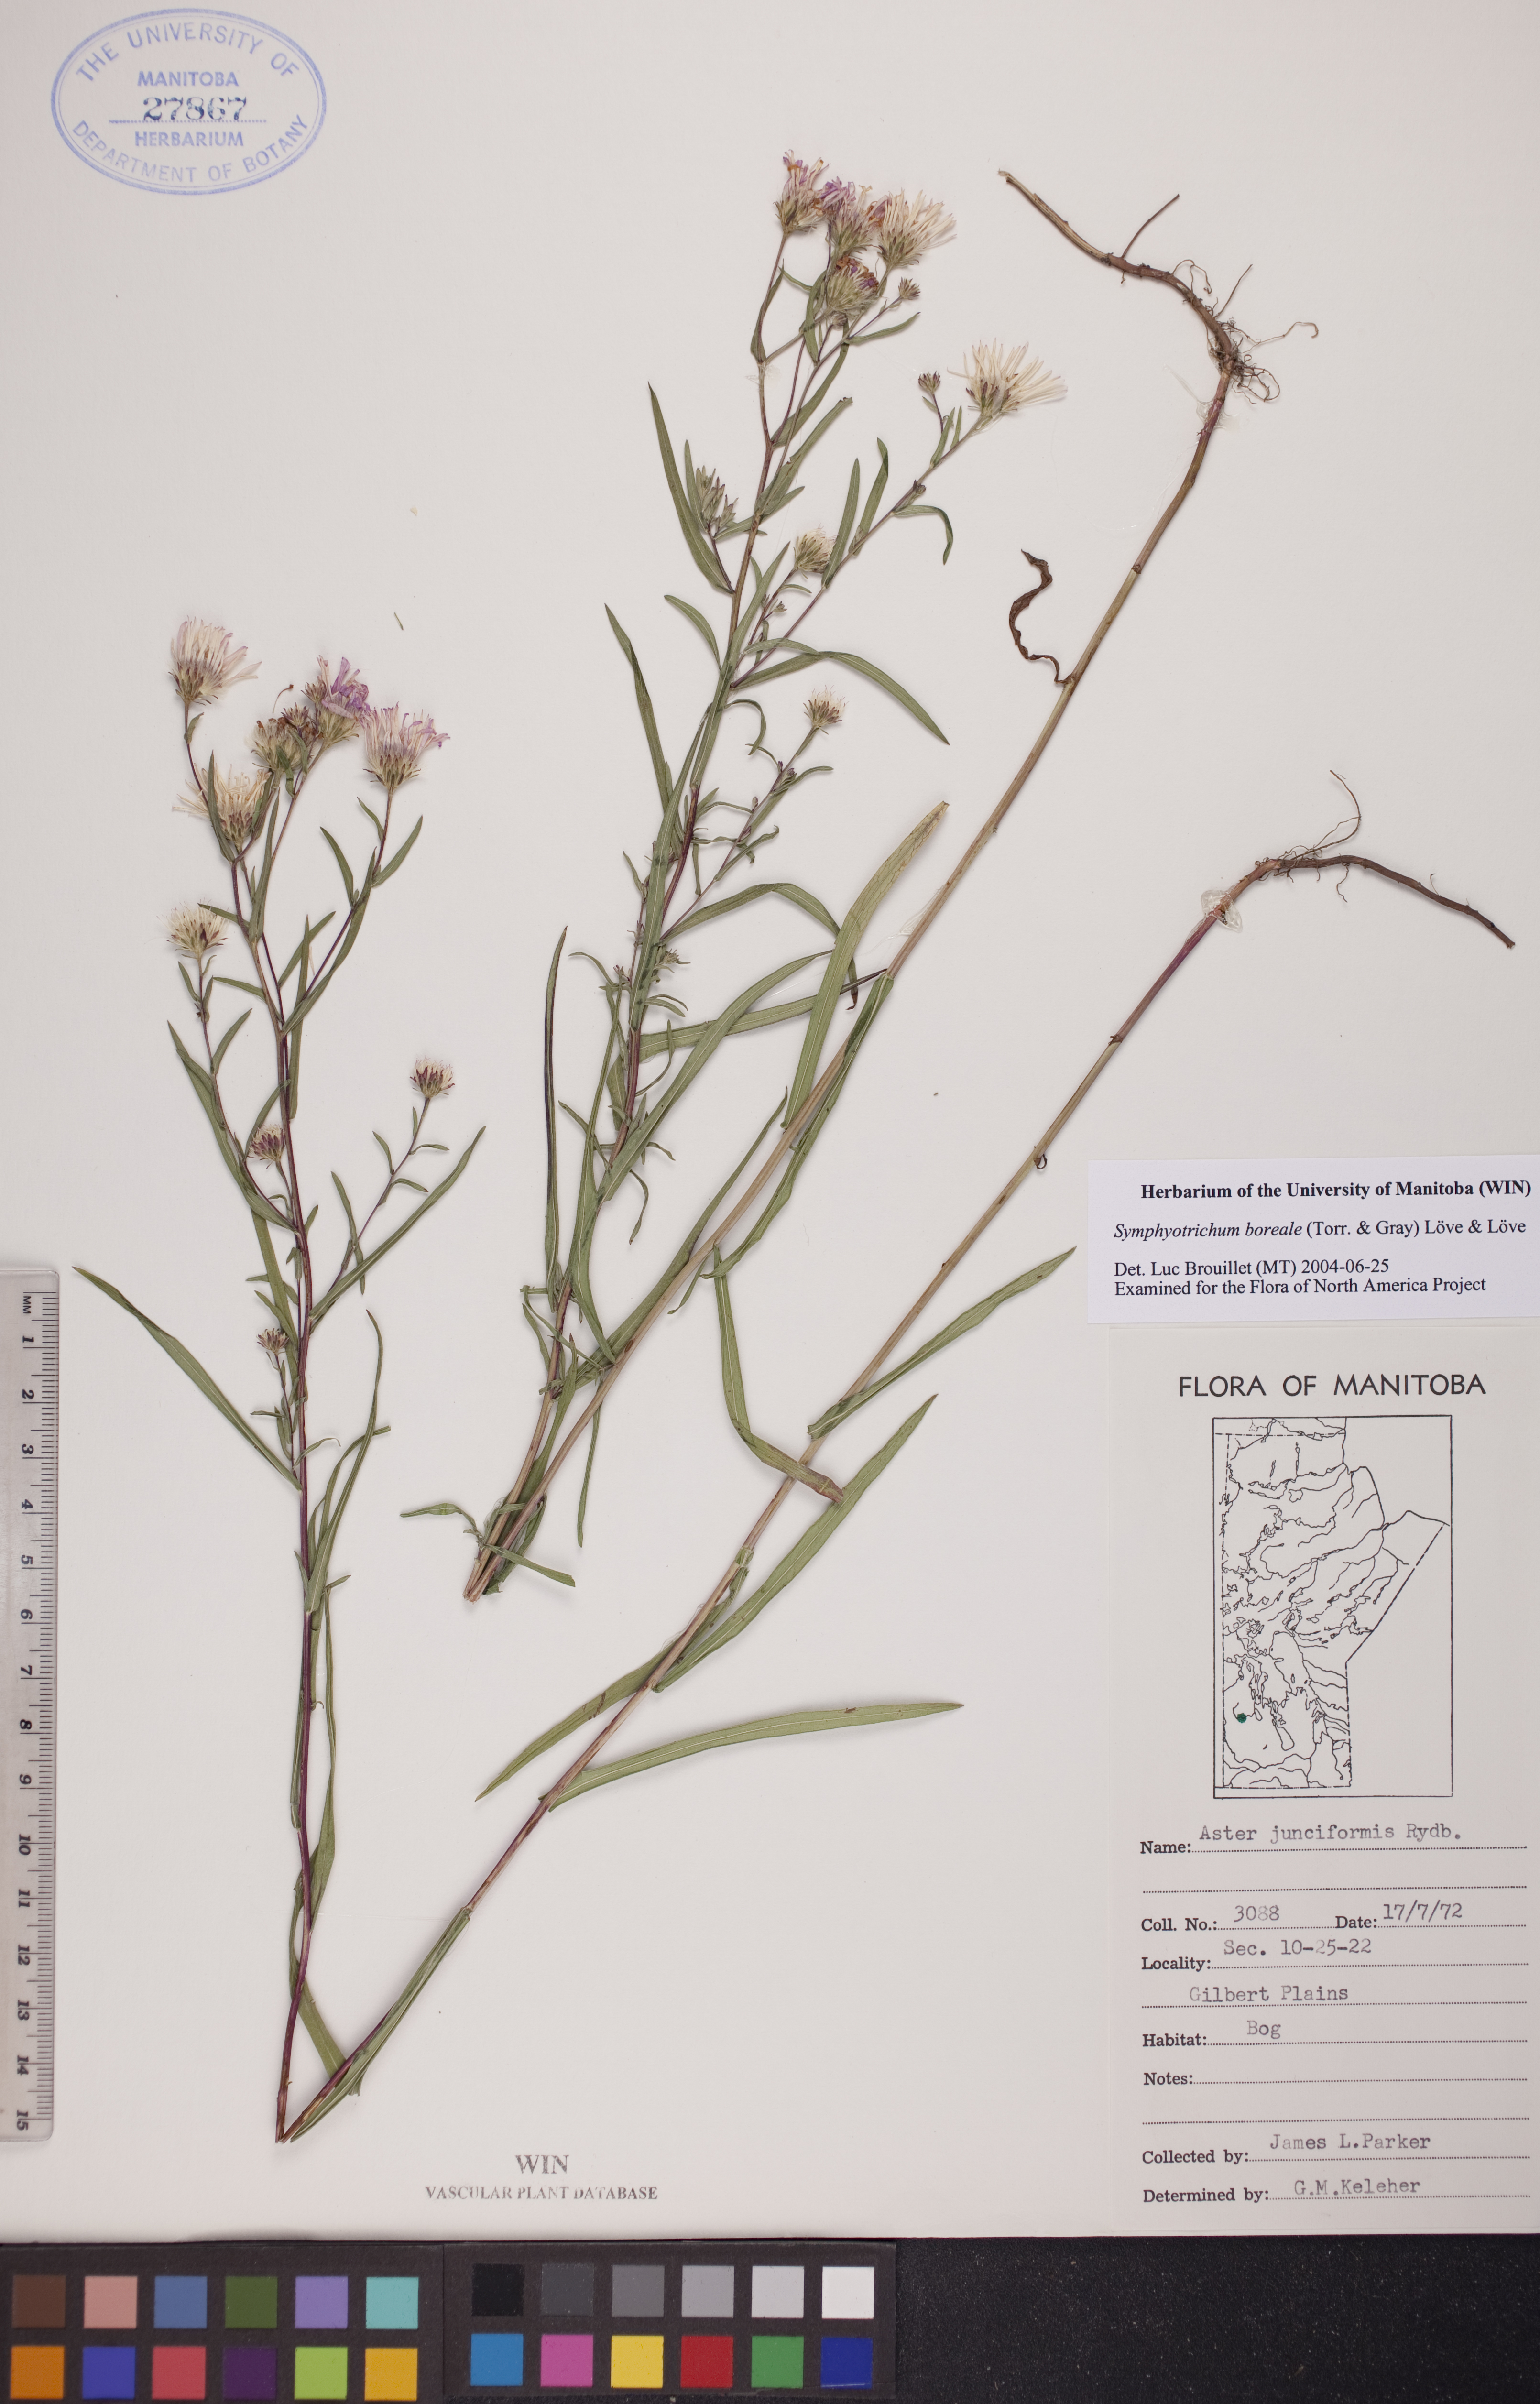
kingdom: Plantae
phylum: Tracheophyta
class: Magnoliopsida
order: Asterales
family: Asteraceae
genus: Symphyotrichum
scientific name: Symphyotrichum boreale
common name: Northern bog aster
